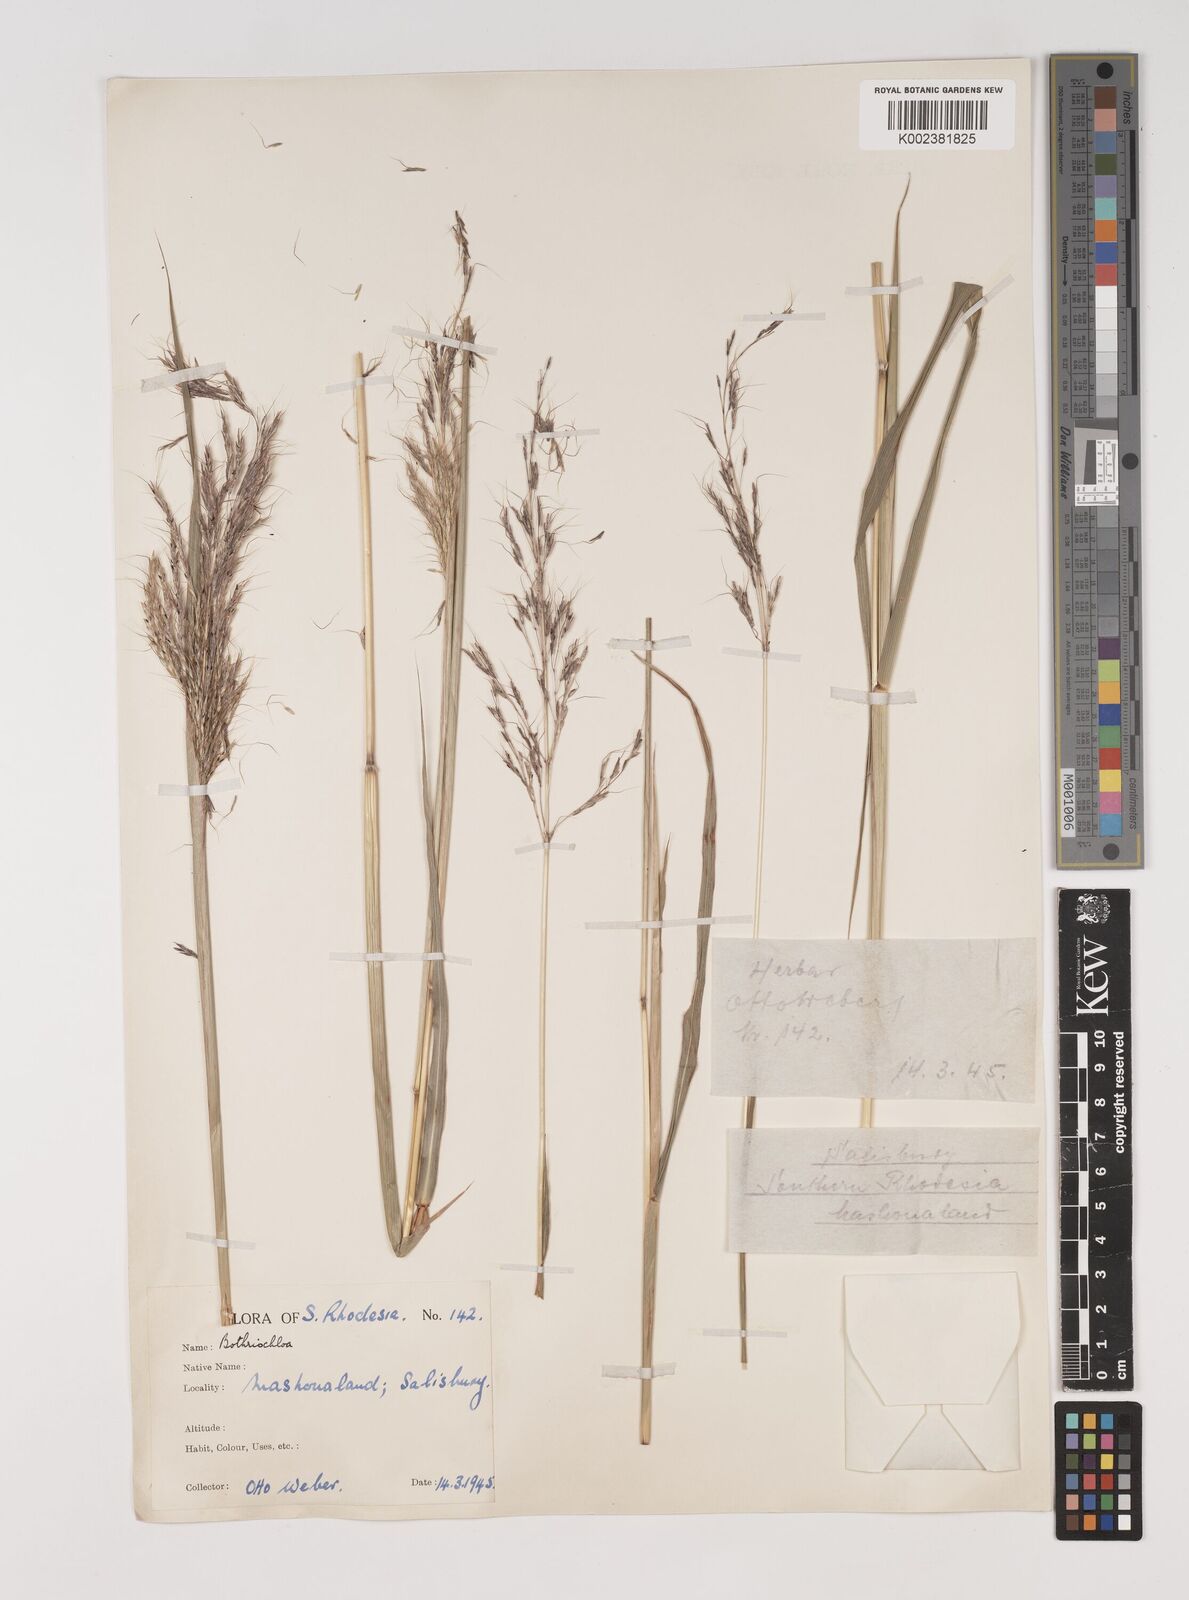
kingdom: Plantae
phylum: Tracheophyta
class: Liliopsida
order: Poales
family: Poaceae
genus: Bothriochloa
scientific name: Bothriochloa bladhii
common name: Caucasian bluestem
